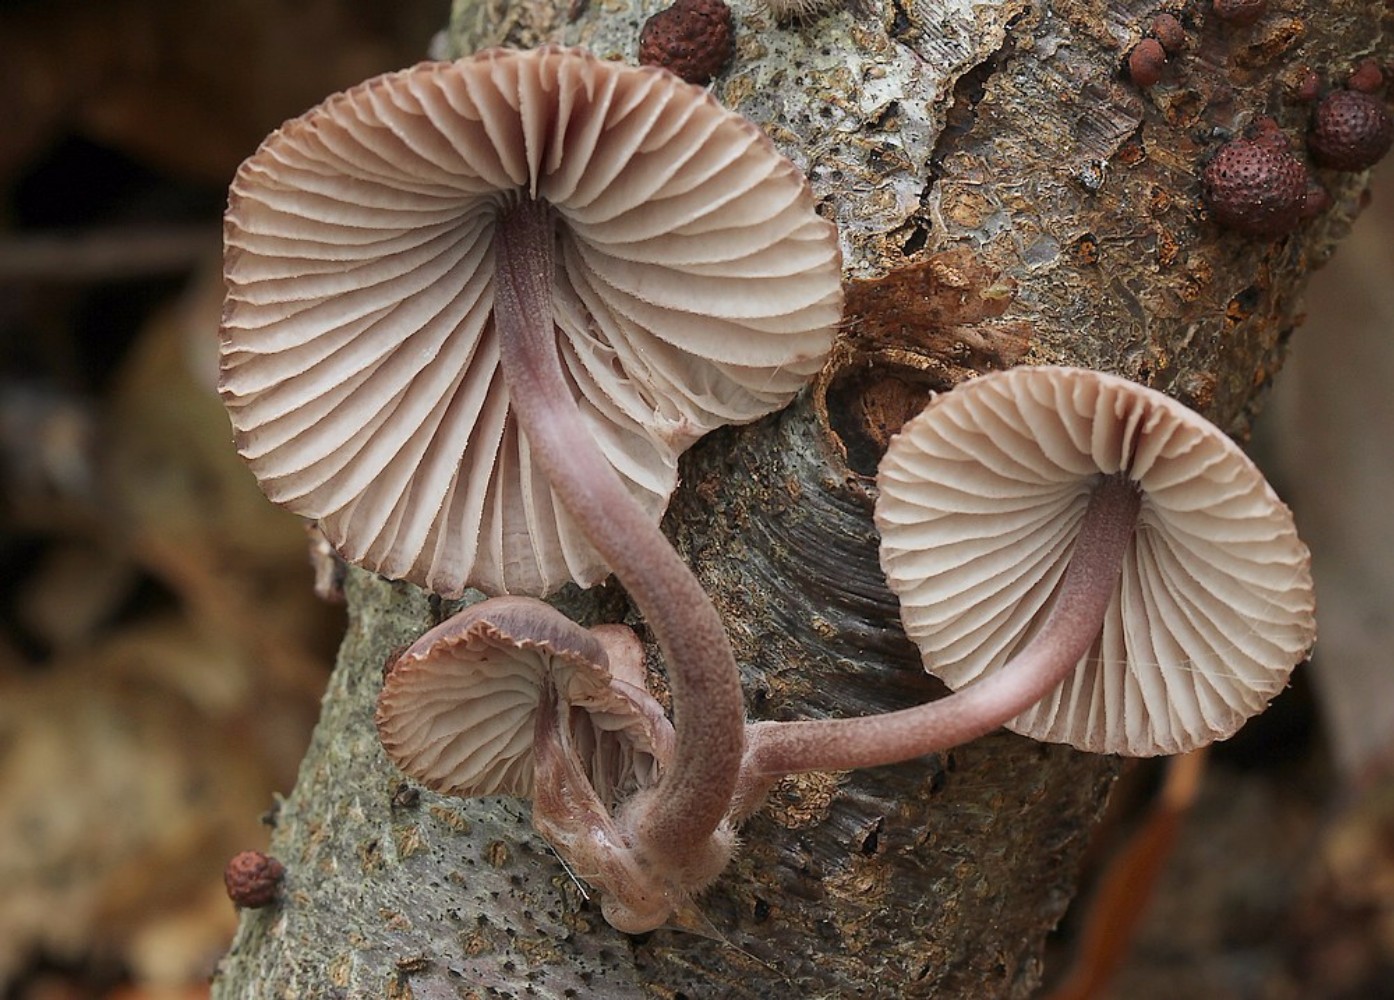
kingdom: Fungi
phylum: Basidiomycota
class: Agaricomycetes
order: Agaricales
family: Mycenaceae
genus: Mycena
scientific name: Mycena haematopus
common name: blødende huesvamp
